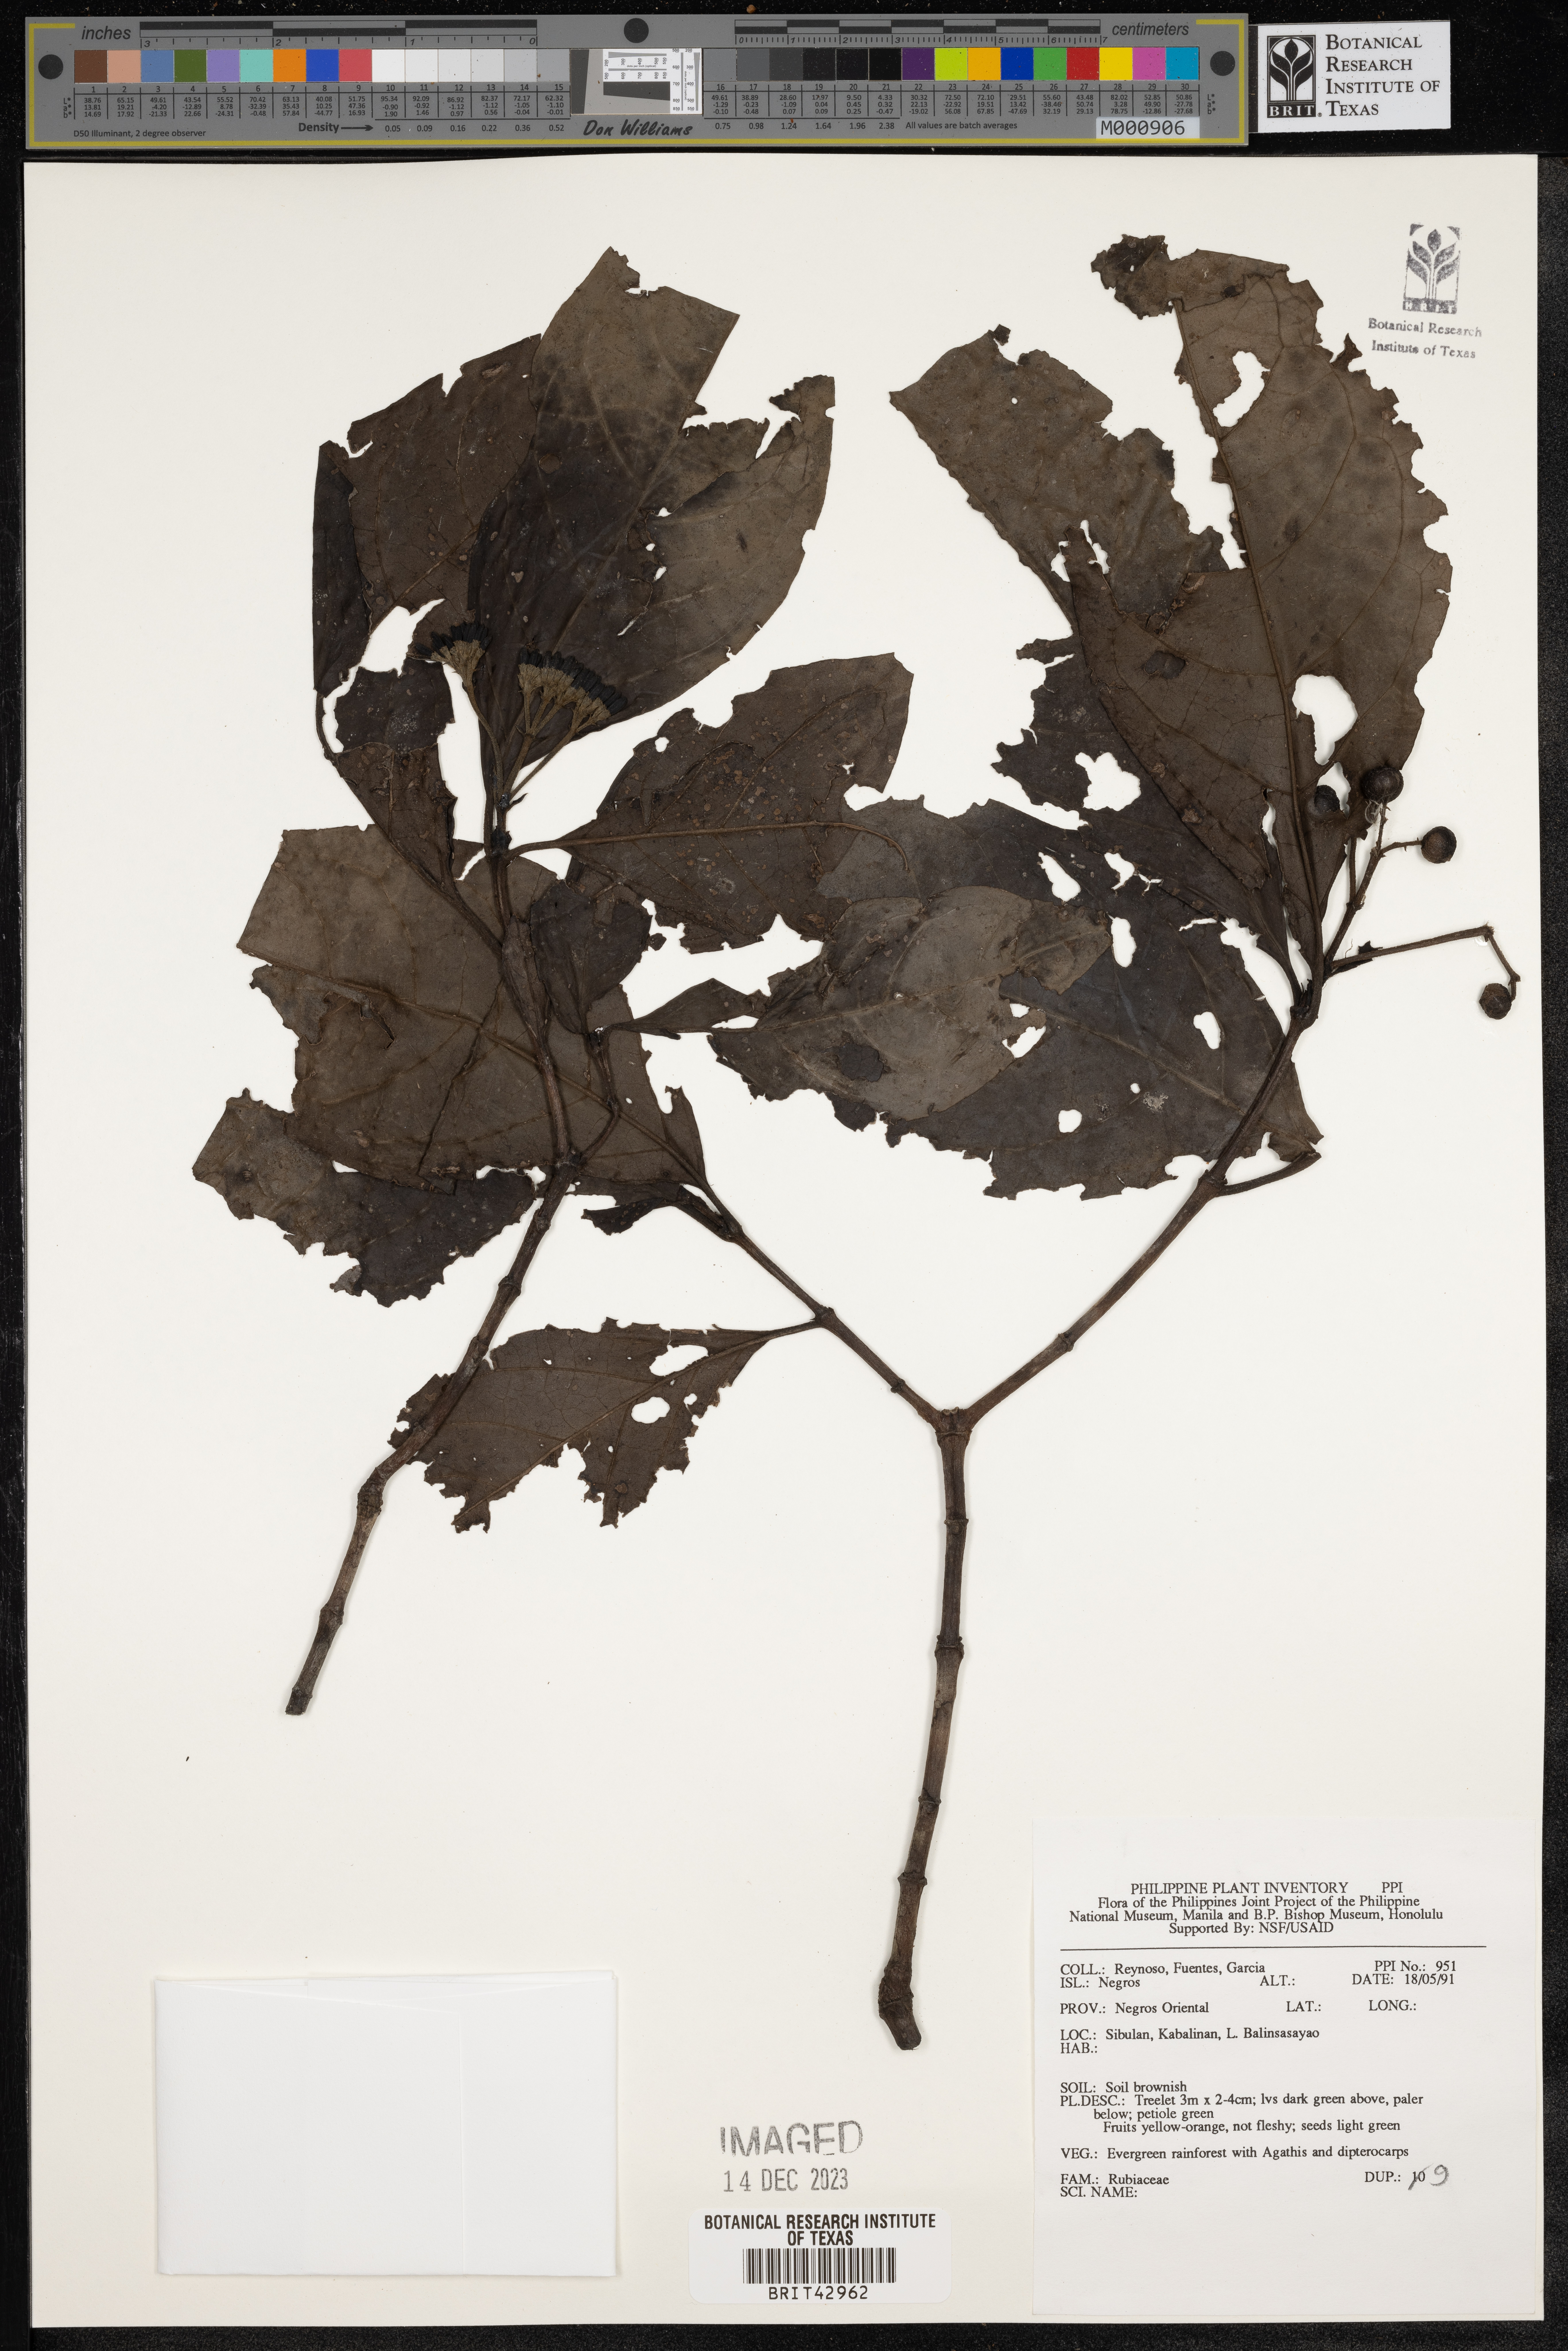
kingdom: Plantae
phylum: Tracheophyta
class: Magnoliopsida
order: Gentianales
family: Rubiaceae
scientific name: Rubiaceae
